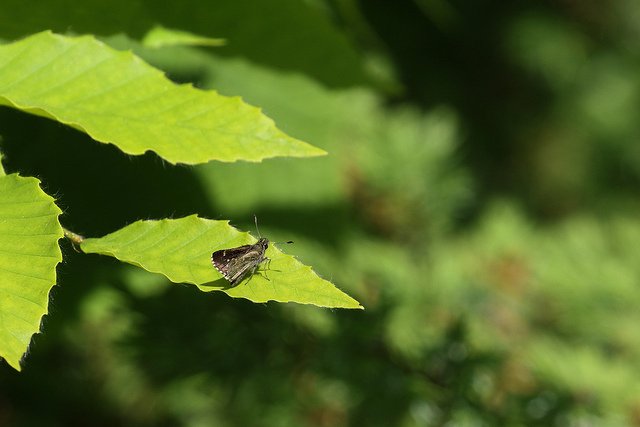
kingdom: Animalia
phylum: Arthropoda
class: Insecta
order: Lepidoptera
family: Hesperiidae
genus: Mastor
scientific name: Mastor hegon
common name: Pepper and Salt Skipper
